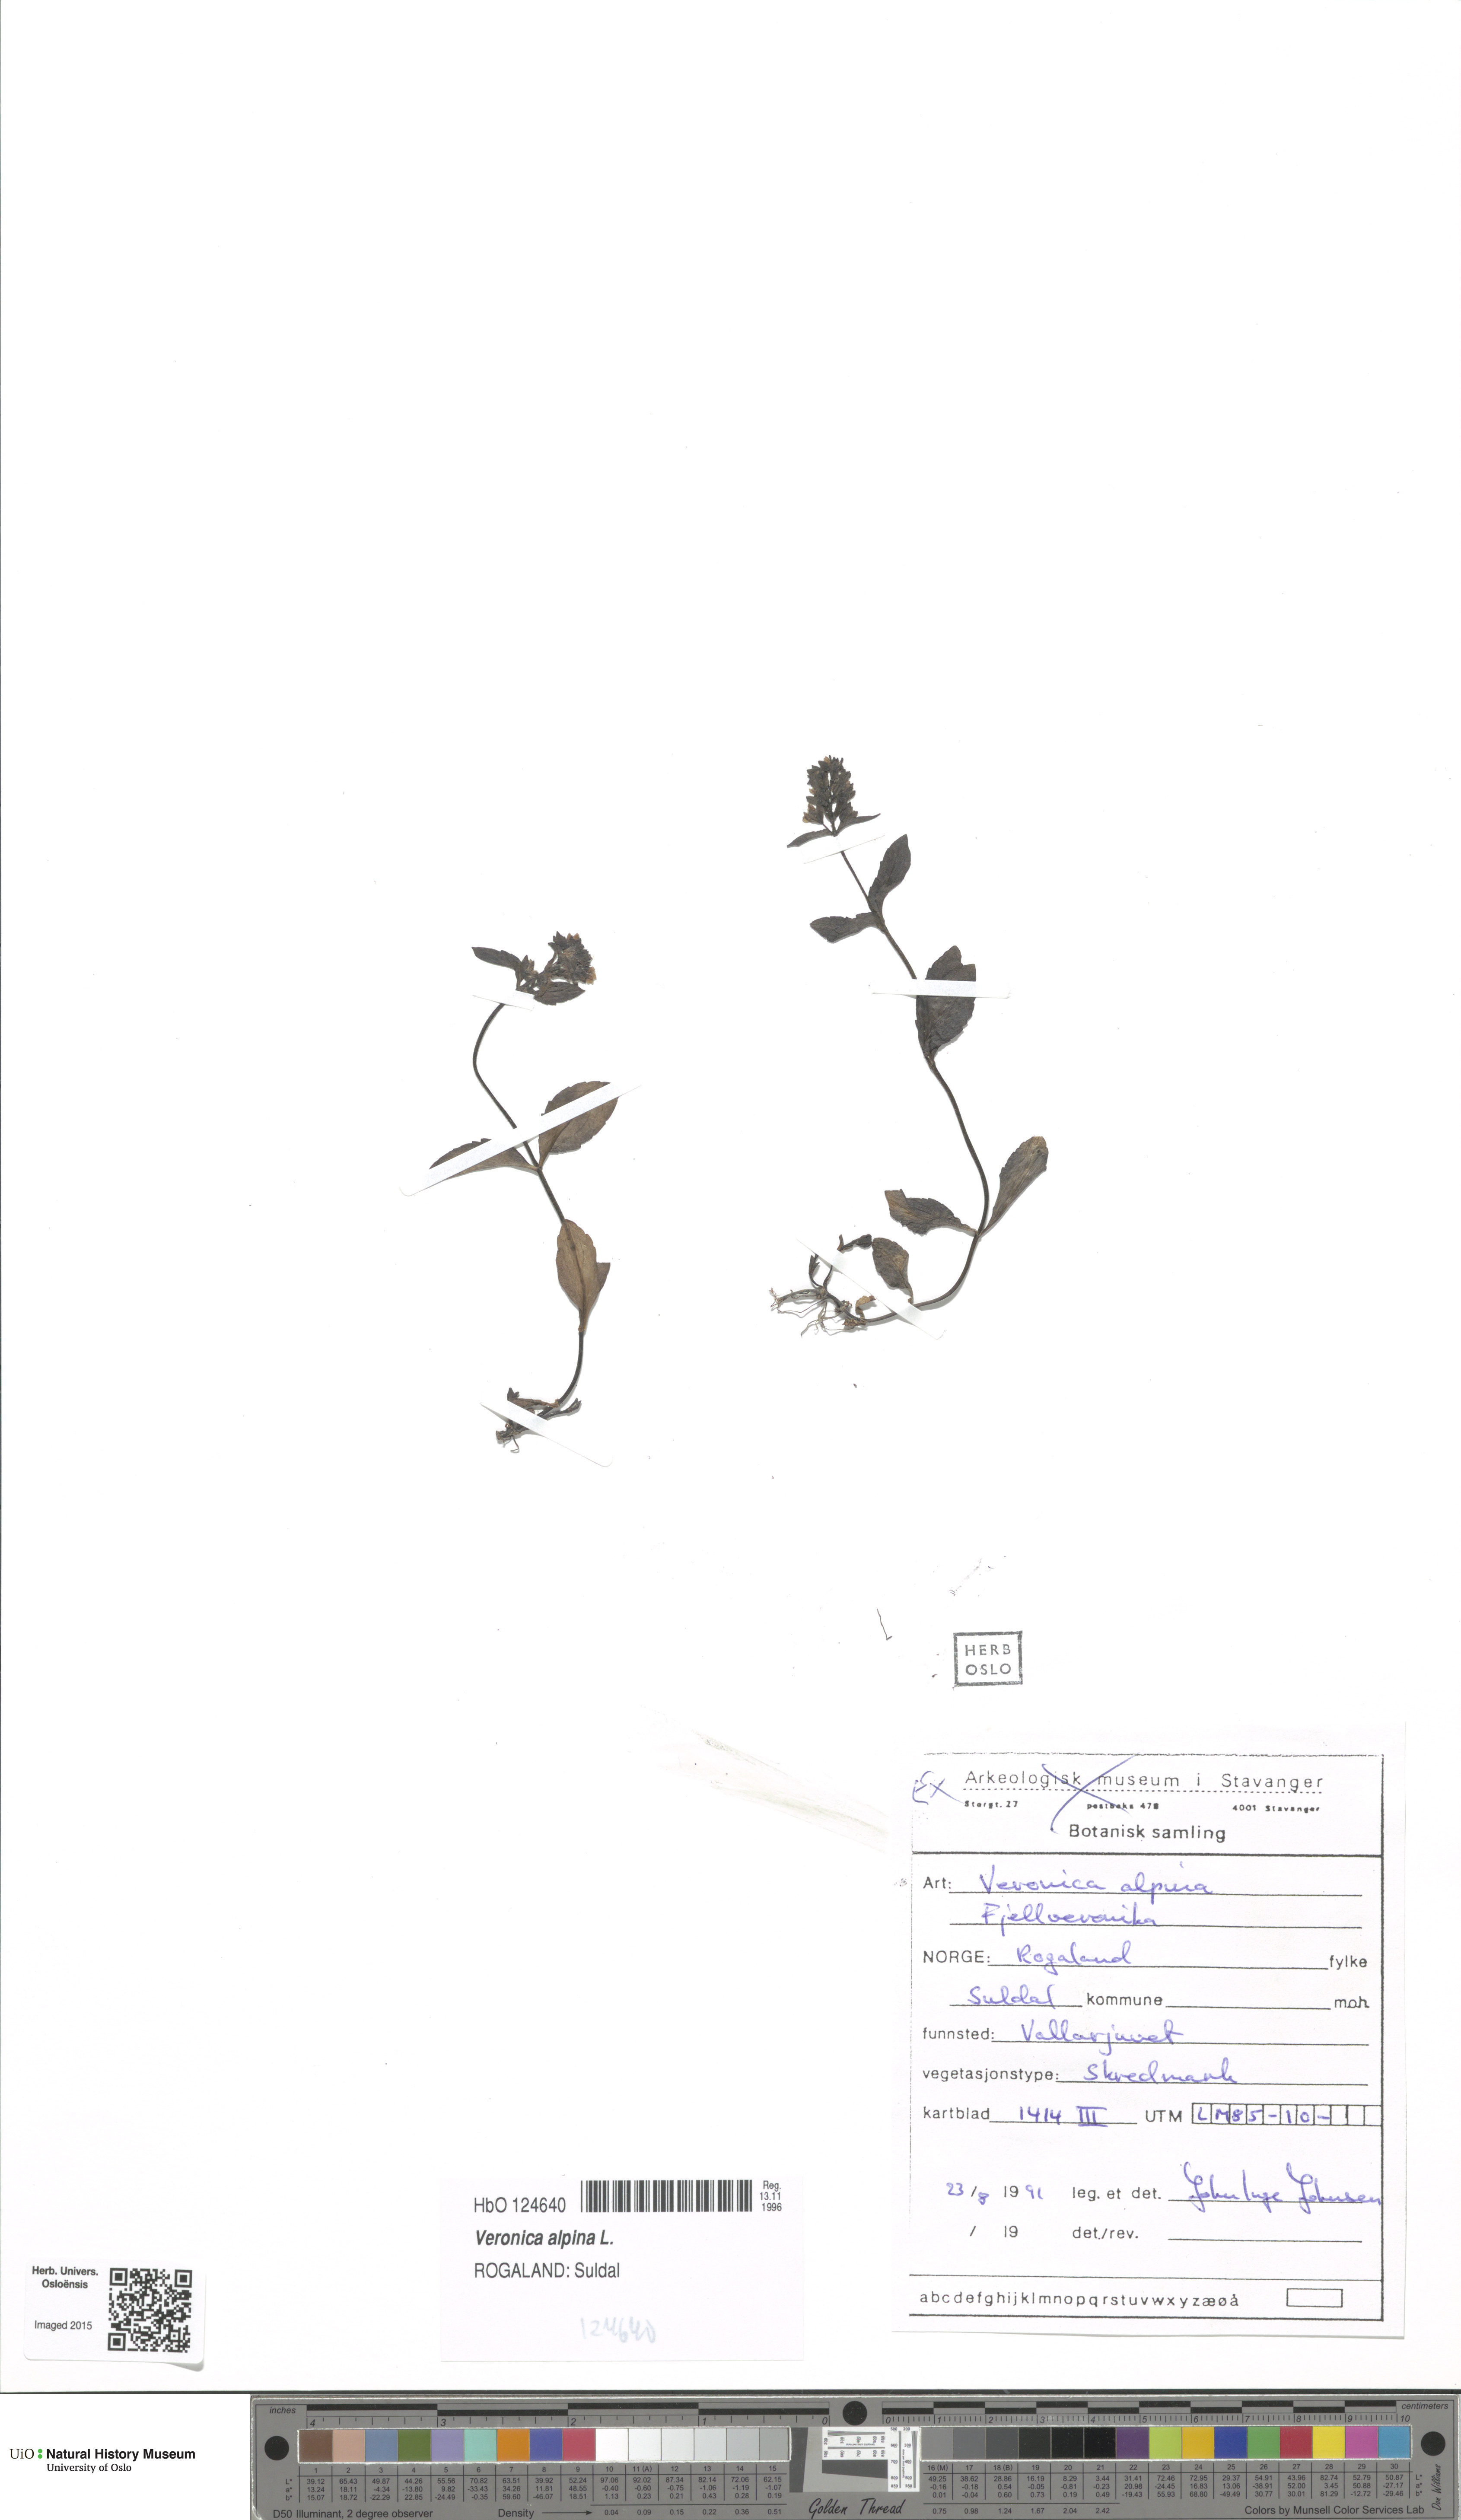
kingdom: Plantae
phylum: Tracheophyta
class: Magnoliopsida
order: Lamiales
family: Plantaginaceae
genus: Veronica
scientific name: Veronica alpina
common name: Alpine speedwell
